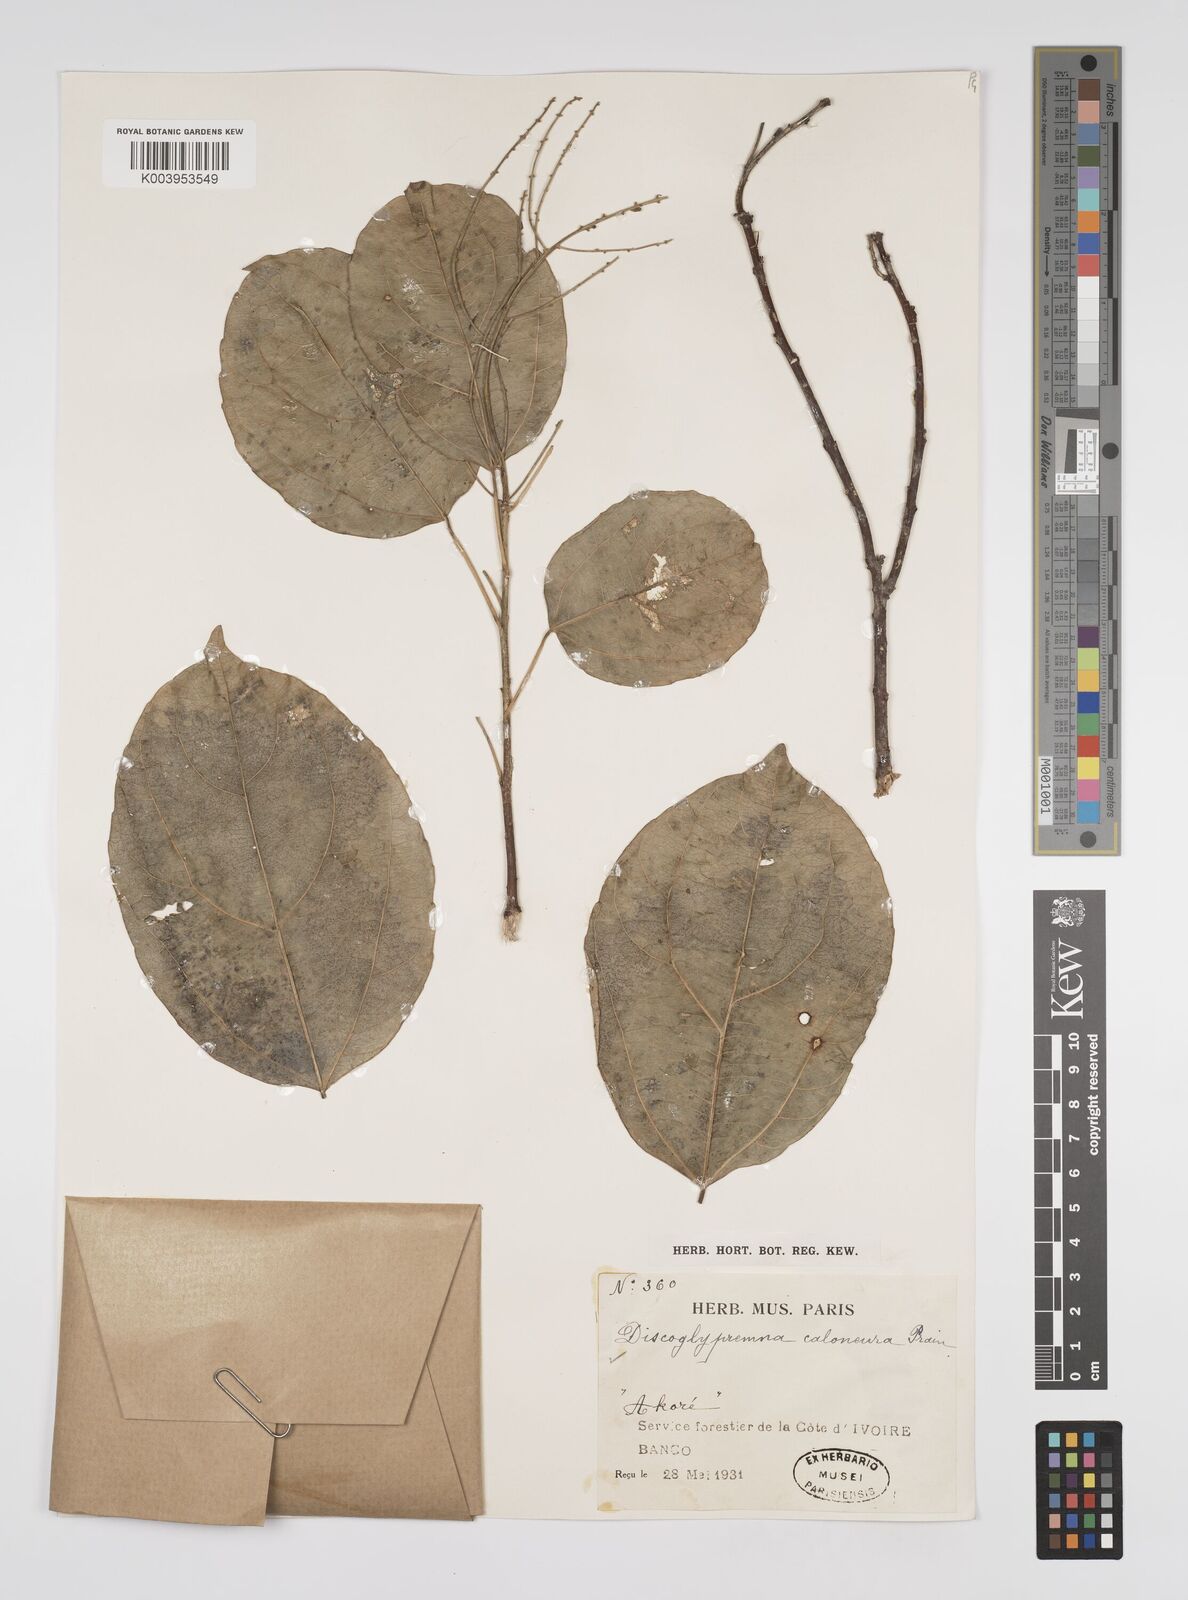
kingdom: Plantae
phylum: Tracheophyta
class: Magnoliopsida
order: Malpighiales
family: Euphorbiaceae
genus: Discoglypremna
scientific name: Discoglypremna caloneura
